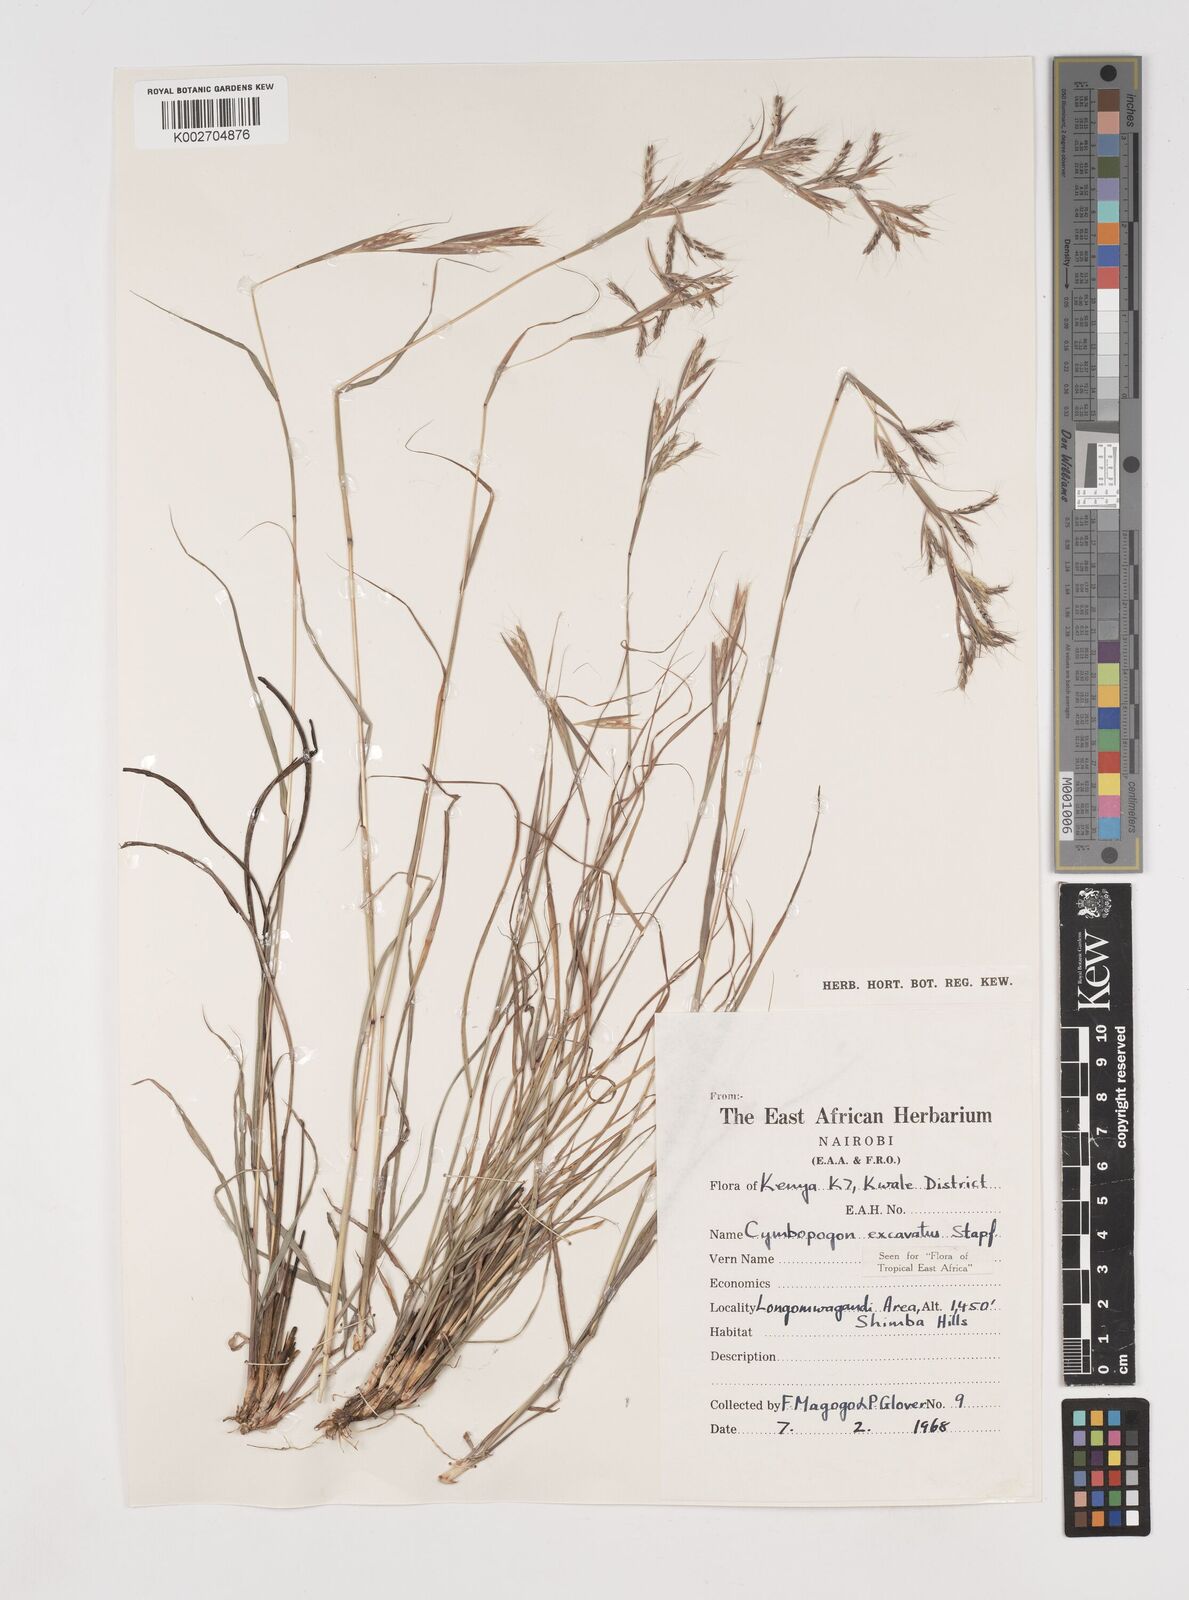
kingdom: Plantae
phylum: Tracheophyta
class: Liliopsida
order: Poales
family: Poaceae
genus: Cymbopogon
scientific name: Cymbopogon caesius
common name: Kachi grass
